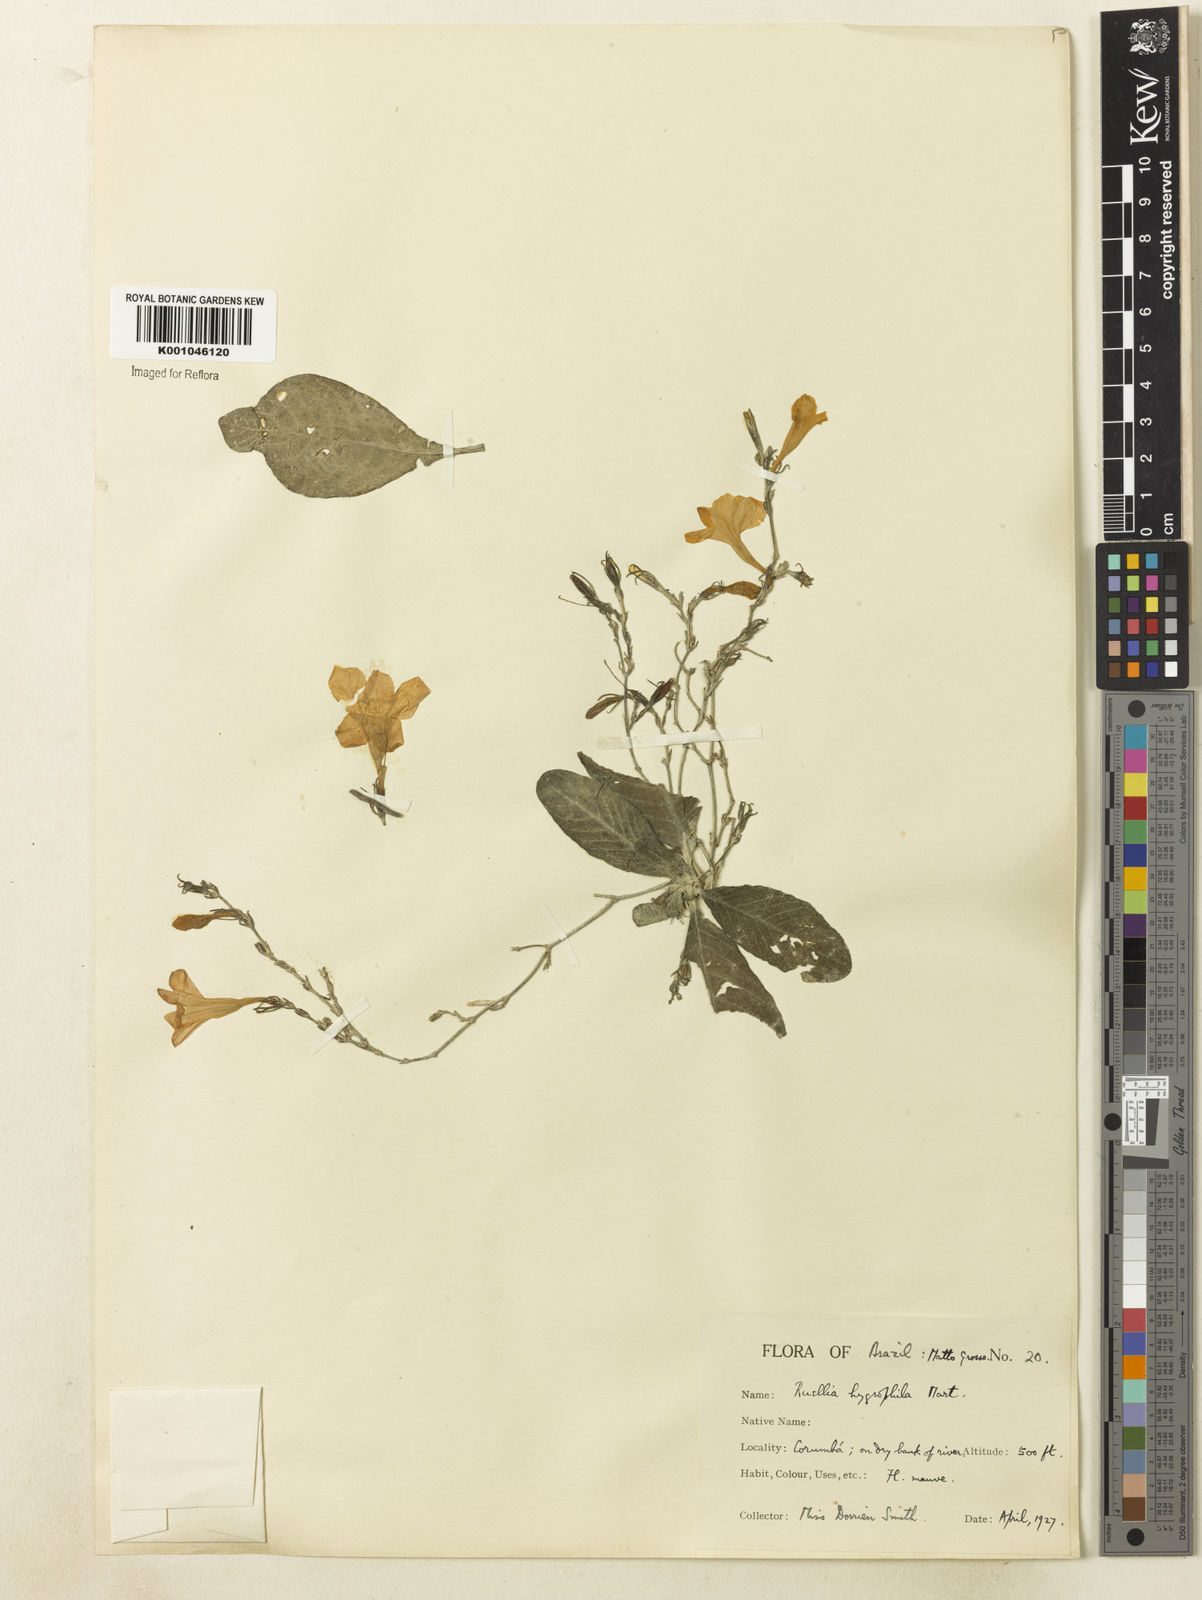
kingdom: Plantae
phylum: Tracheophyta
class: Magnoliopsida
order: Lamiales
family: Acanthaceae
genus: Ruellia
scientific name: Ruellia hygrophila
